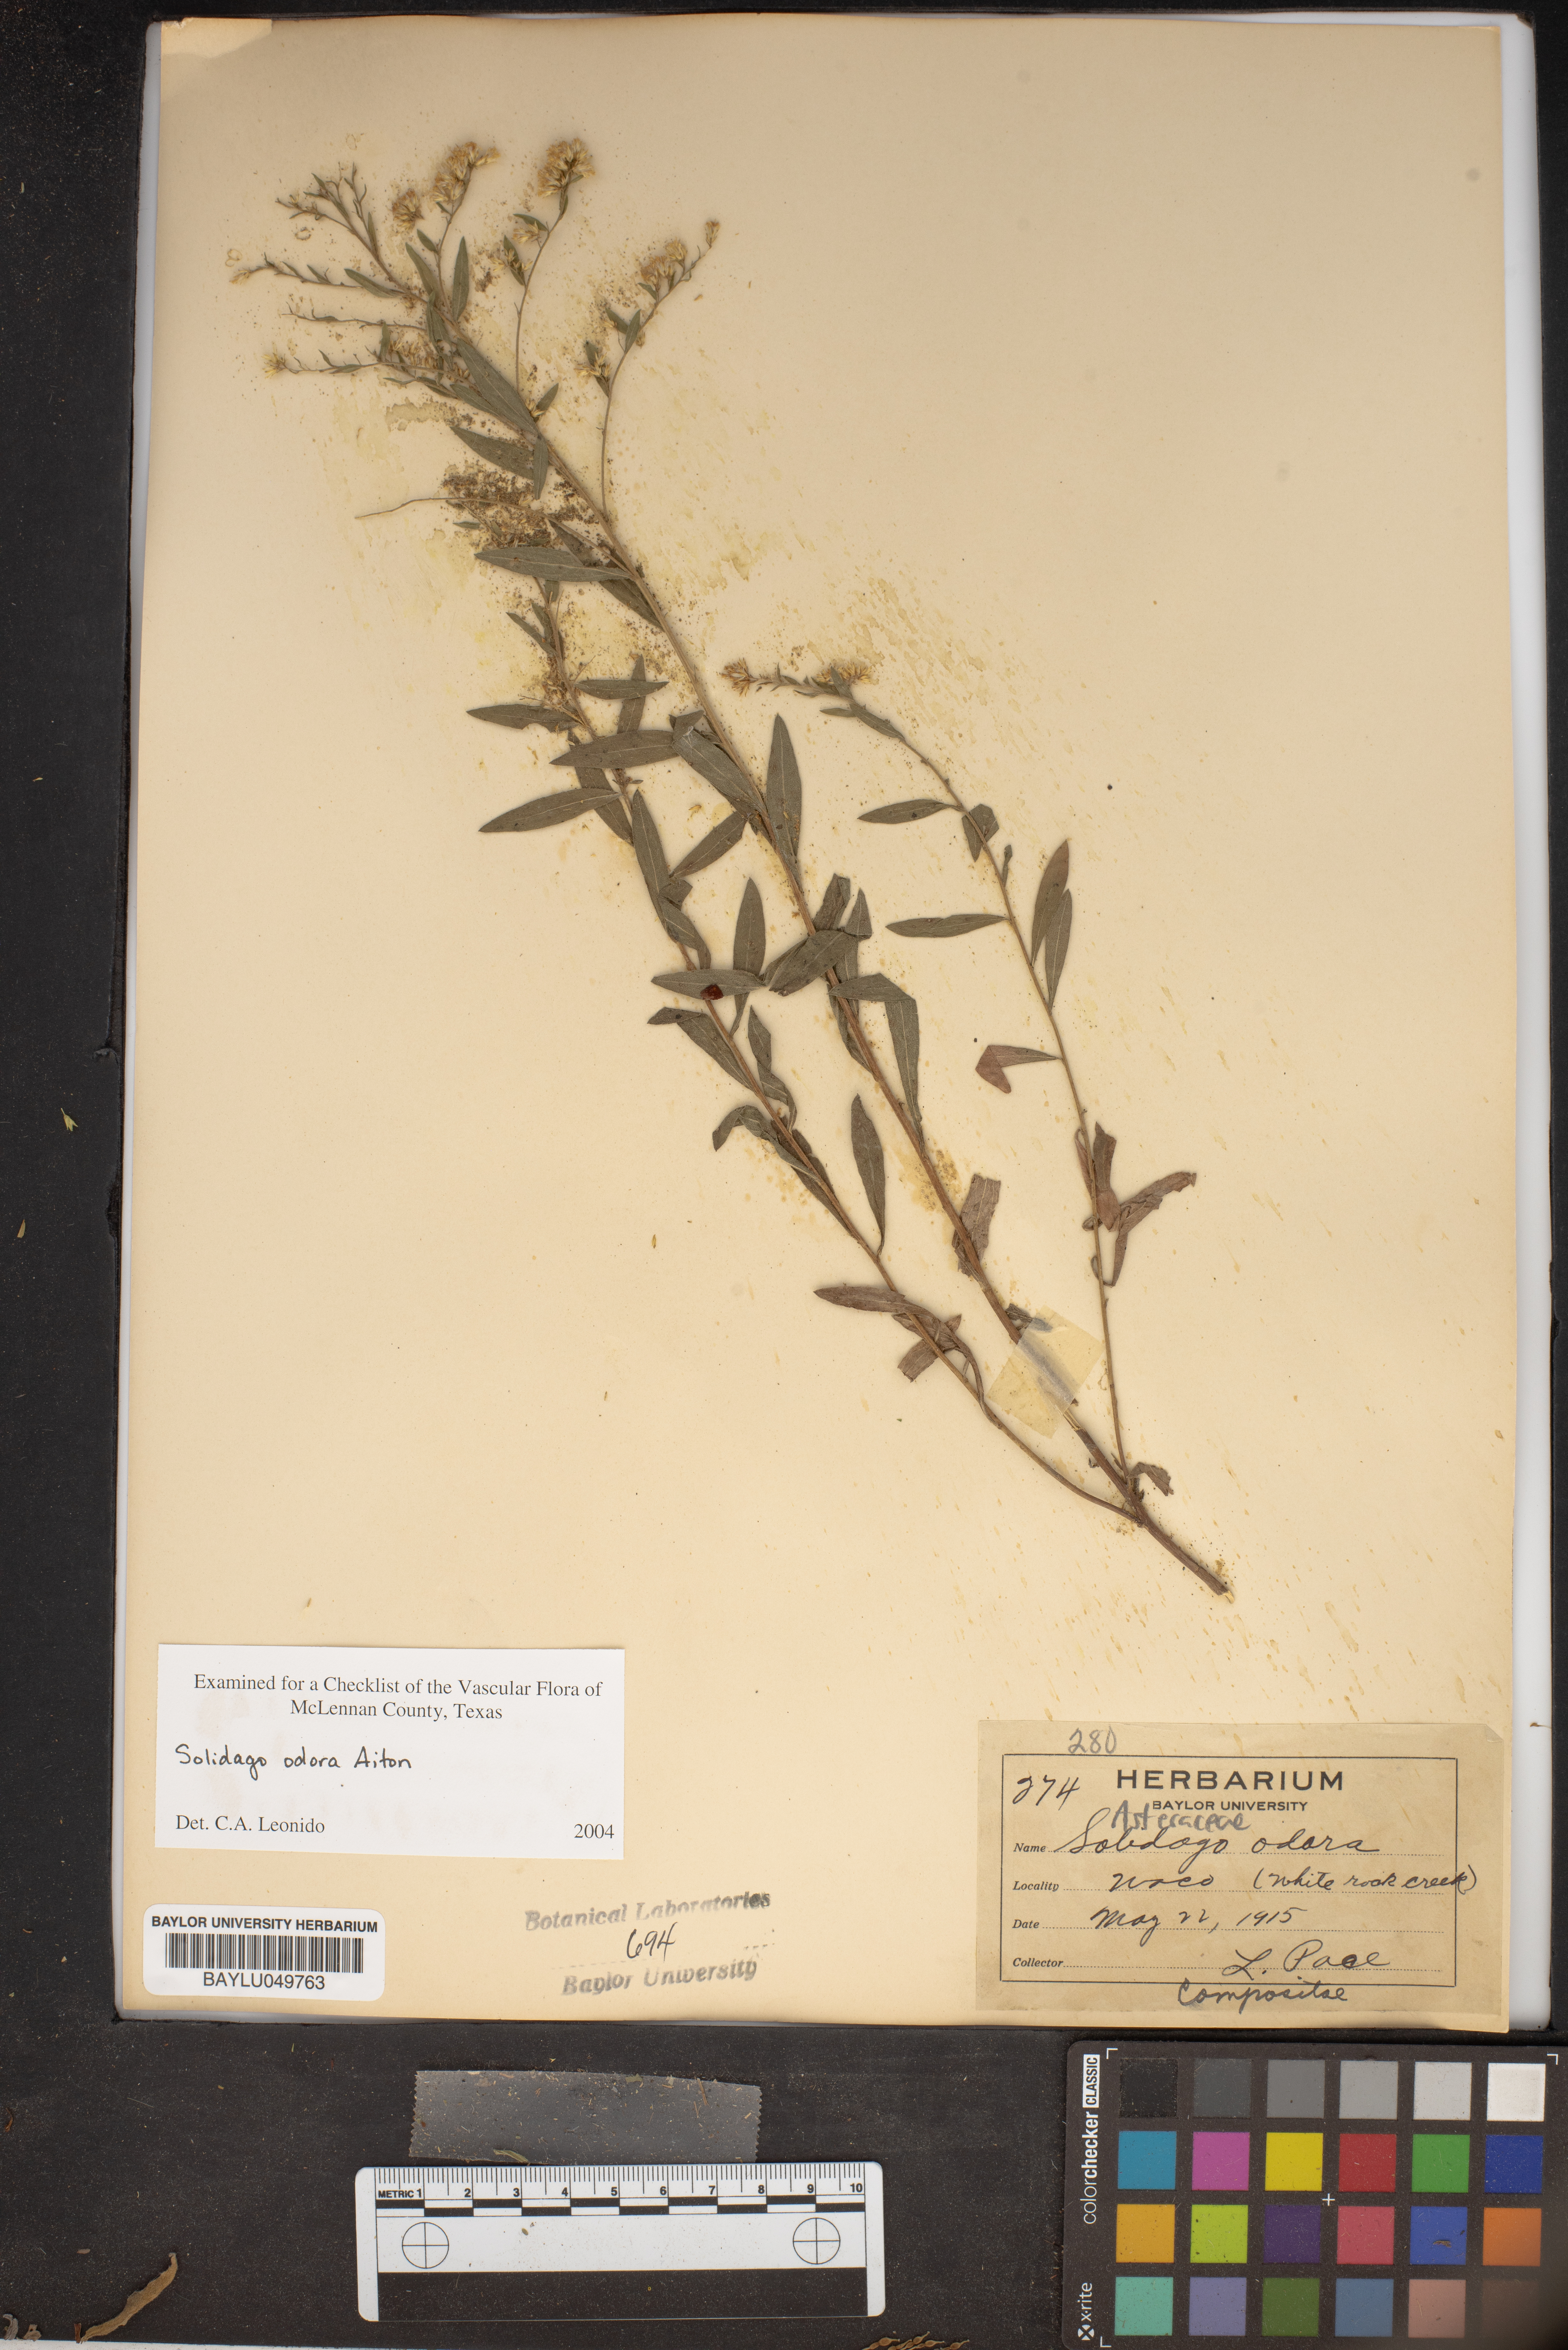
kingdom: Plantae
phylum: Tracheophyta
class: Magnoliopsida
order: Asterales
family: Asteraceae
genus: Solidago
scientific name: Solidago odora
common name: Anise-scented goldenrod
